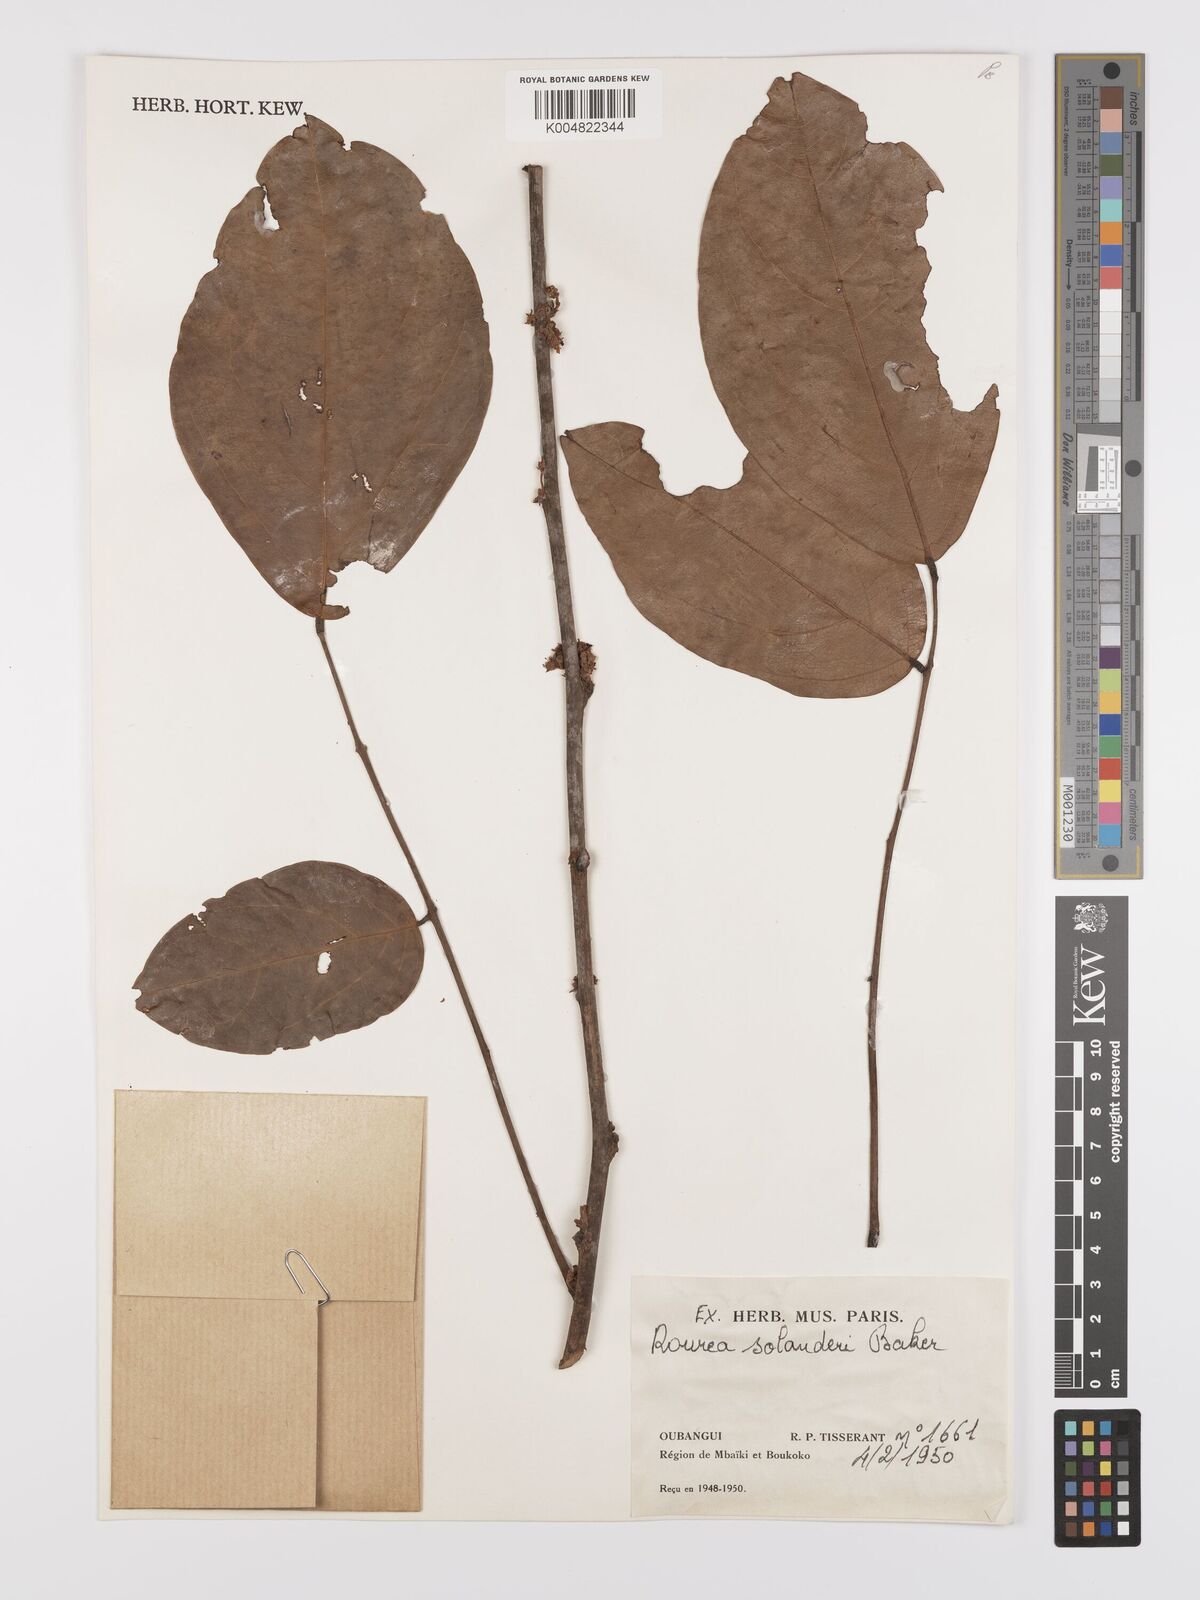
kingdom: Plantae
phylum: Tracheophyta
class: Magnoliopsida
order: Oxalidales
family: Connaraceae
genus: Rourea
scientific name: Rourea solanderi
